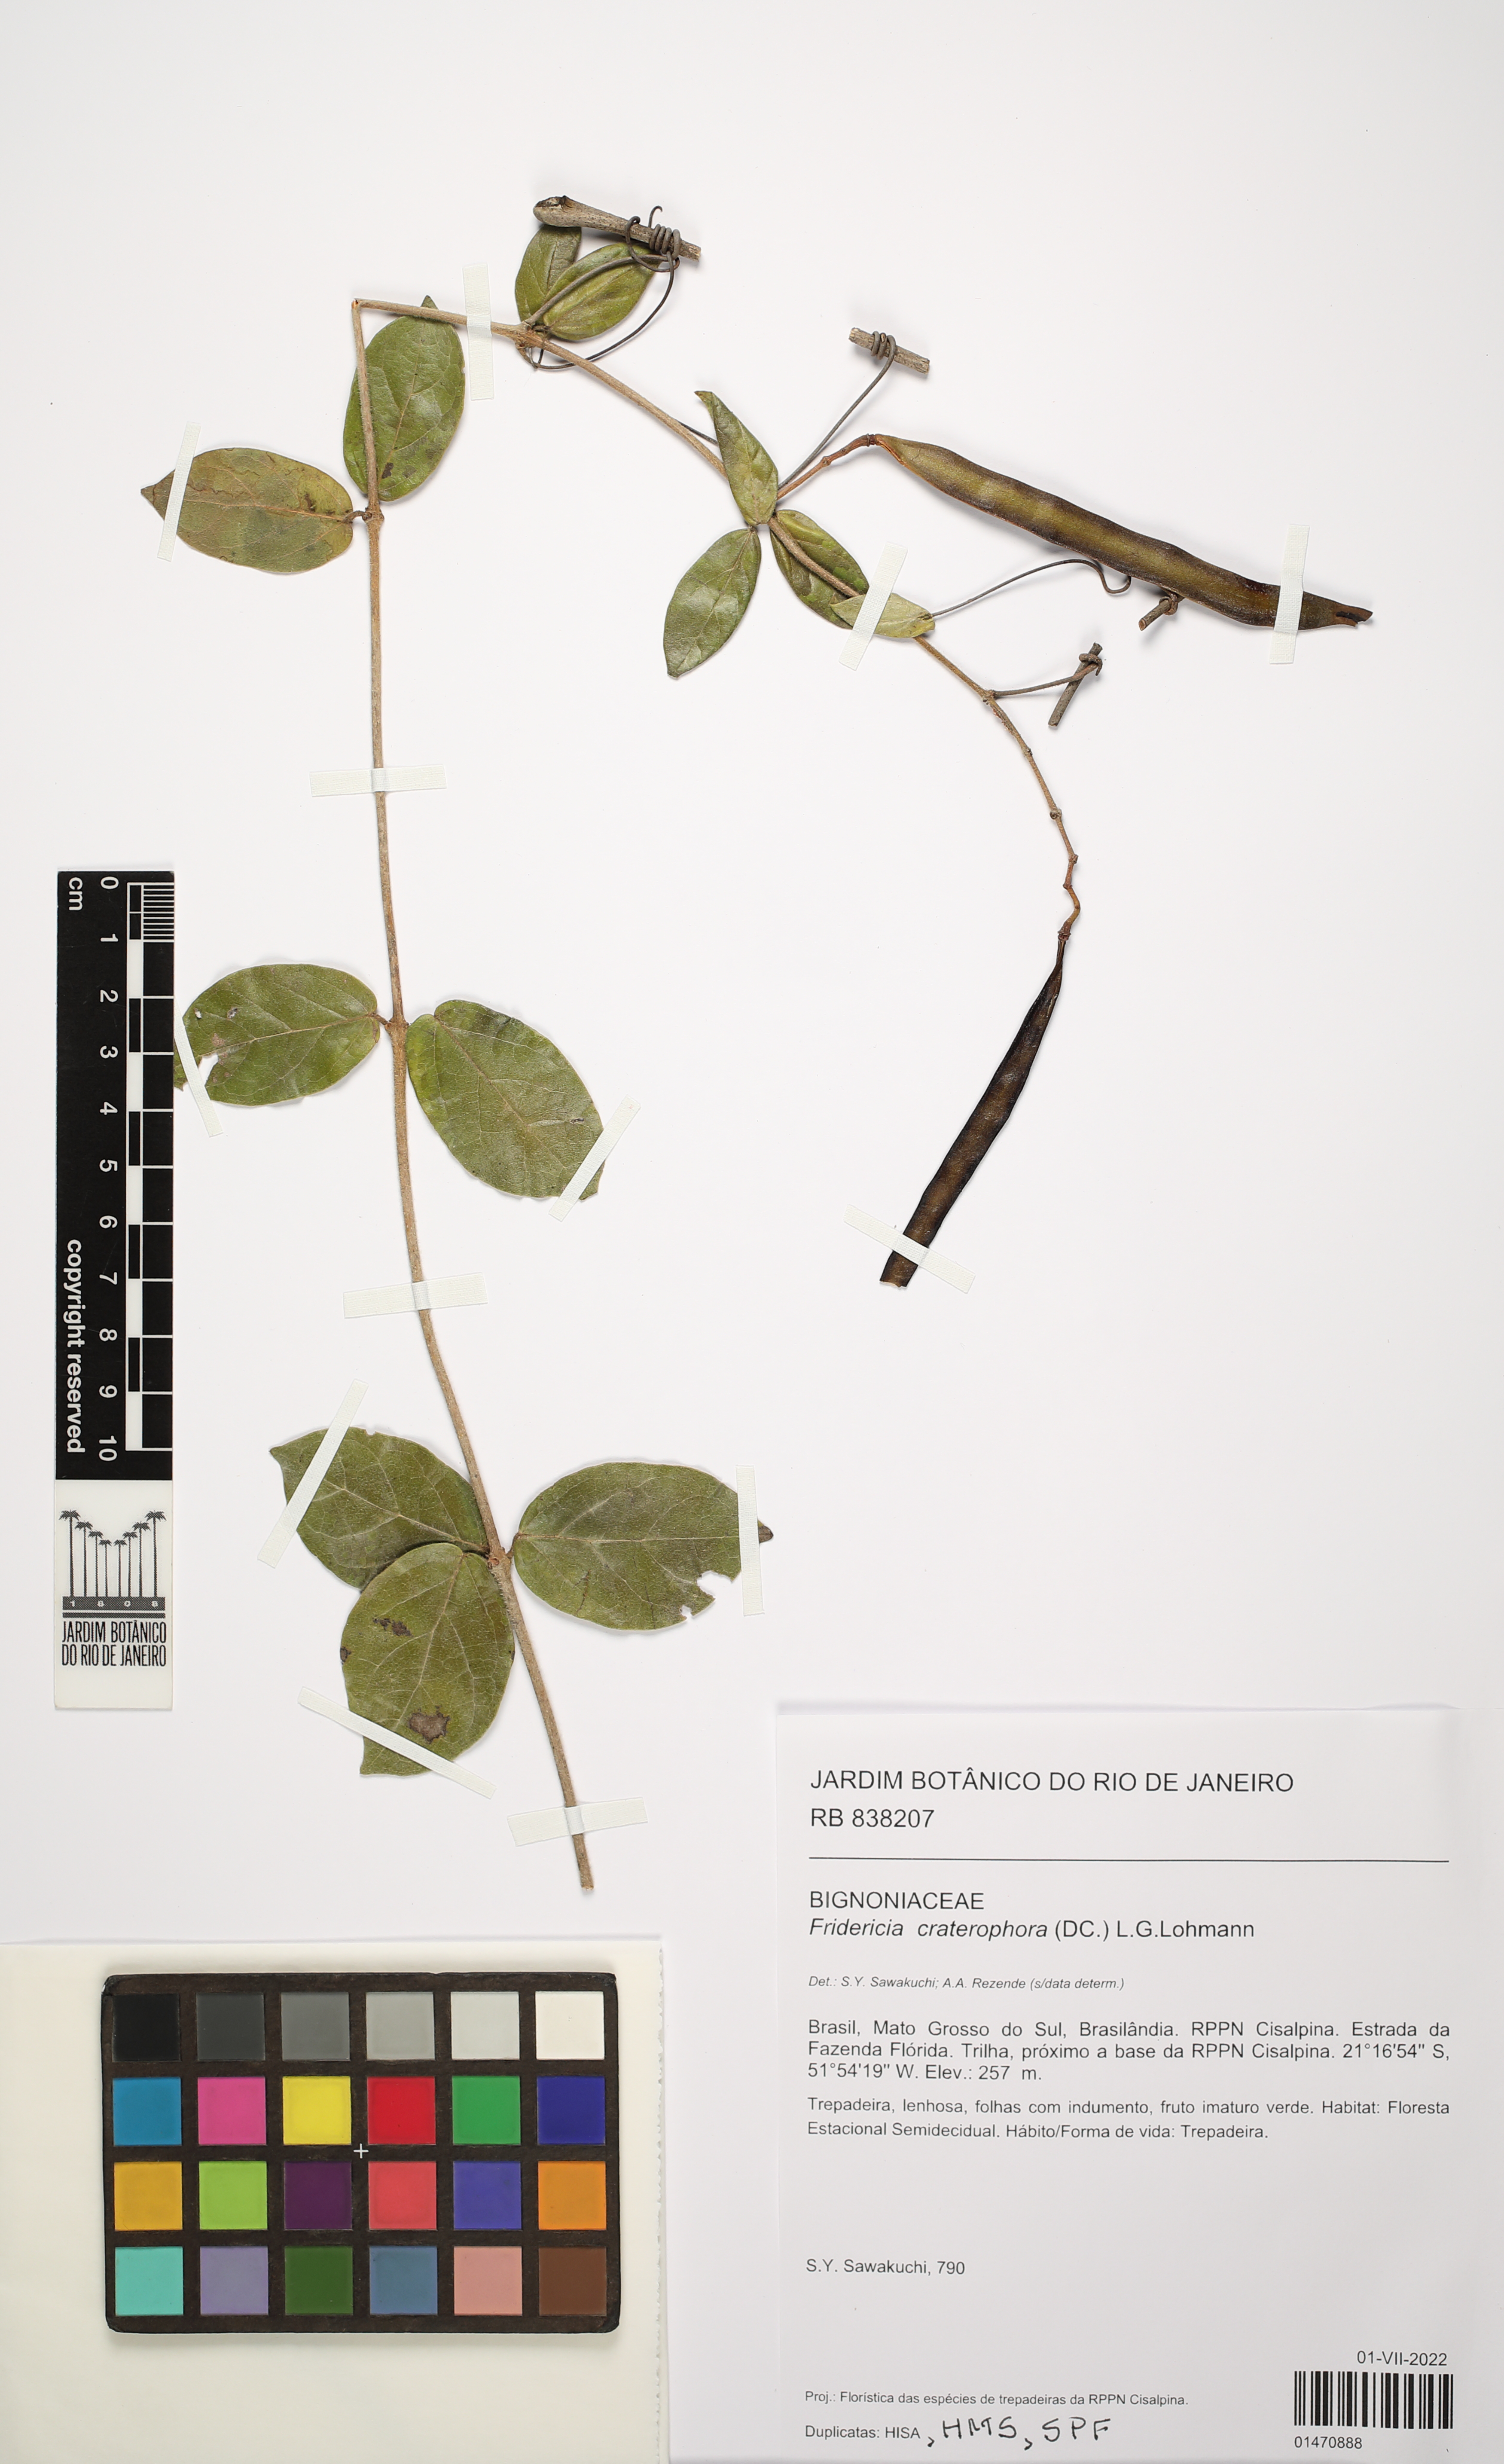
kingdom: Plantae
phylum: Tracheophyta
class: Magnoliopsida
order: Lamiales
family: Bignoniaceae
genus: Fridericia
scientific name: Fridericia craterophora
